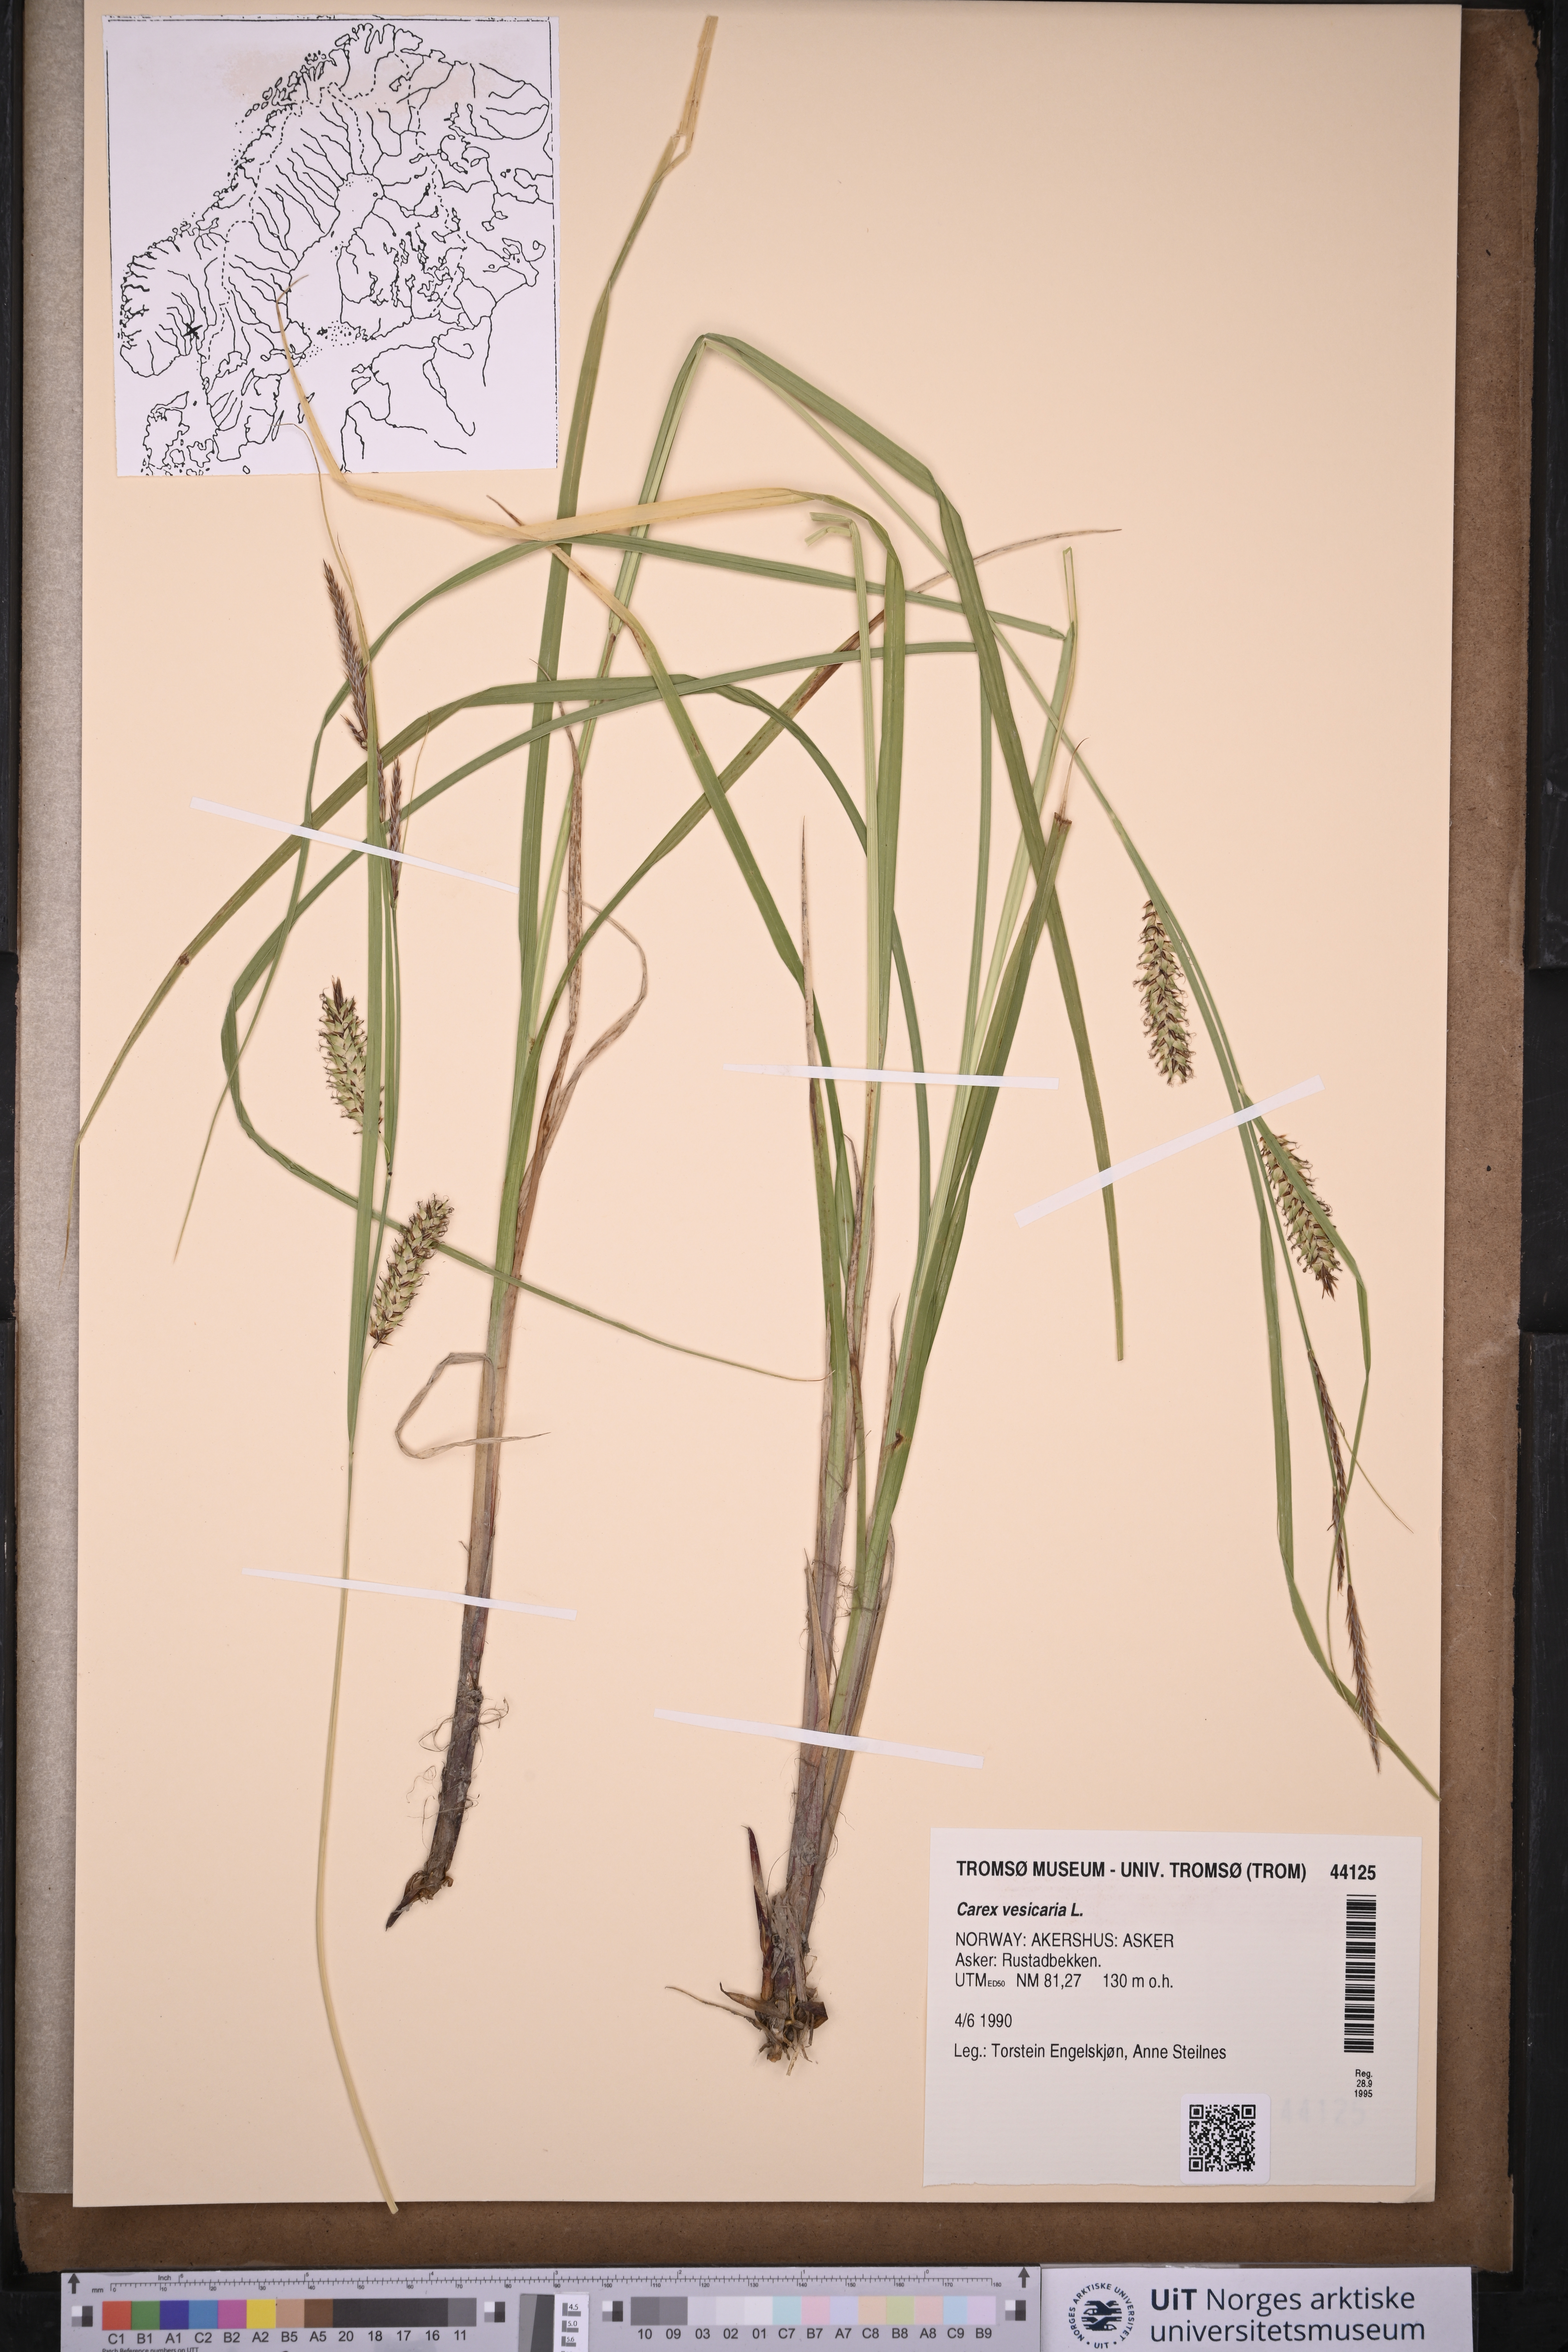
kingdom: Plantae
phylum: Tracheophyta
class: Liliopsida
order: Poales
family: Cyperaceae
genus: Carex
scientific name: Carex vesicaria
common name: Bladder-sedge
